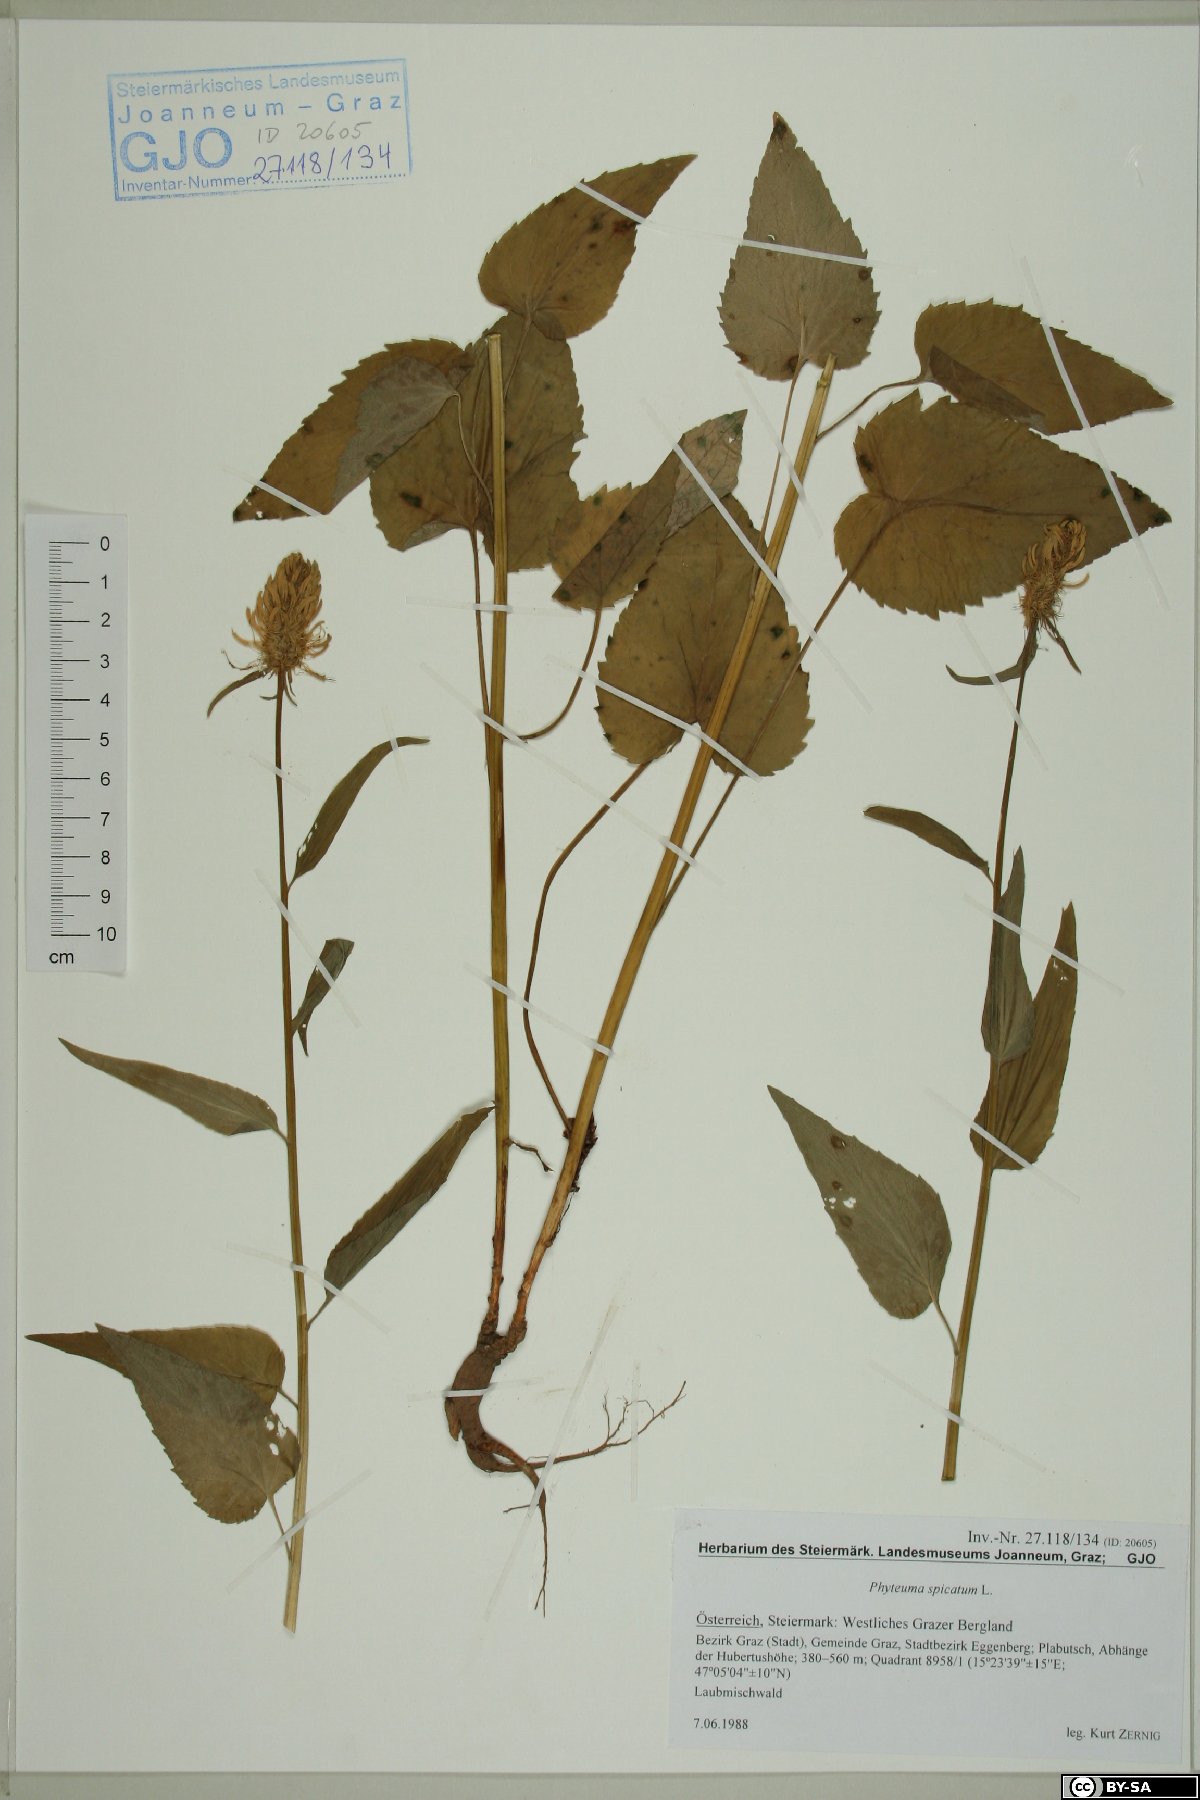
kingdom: Plantae
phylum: Tracheophyta
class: Magnoliopsida
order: Asterales
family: Campanulaceae
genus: Phyteuma
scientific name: Phyteuma spicatum
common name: Spiked rampion
